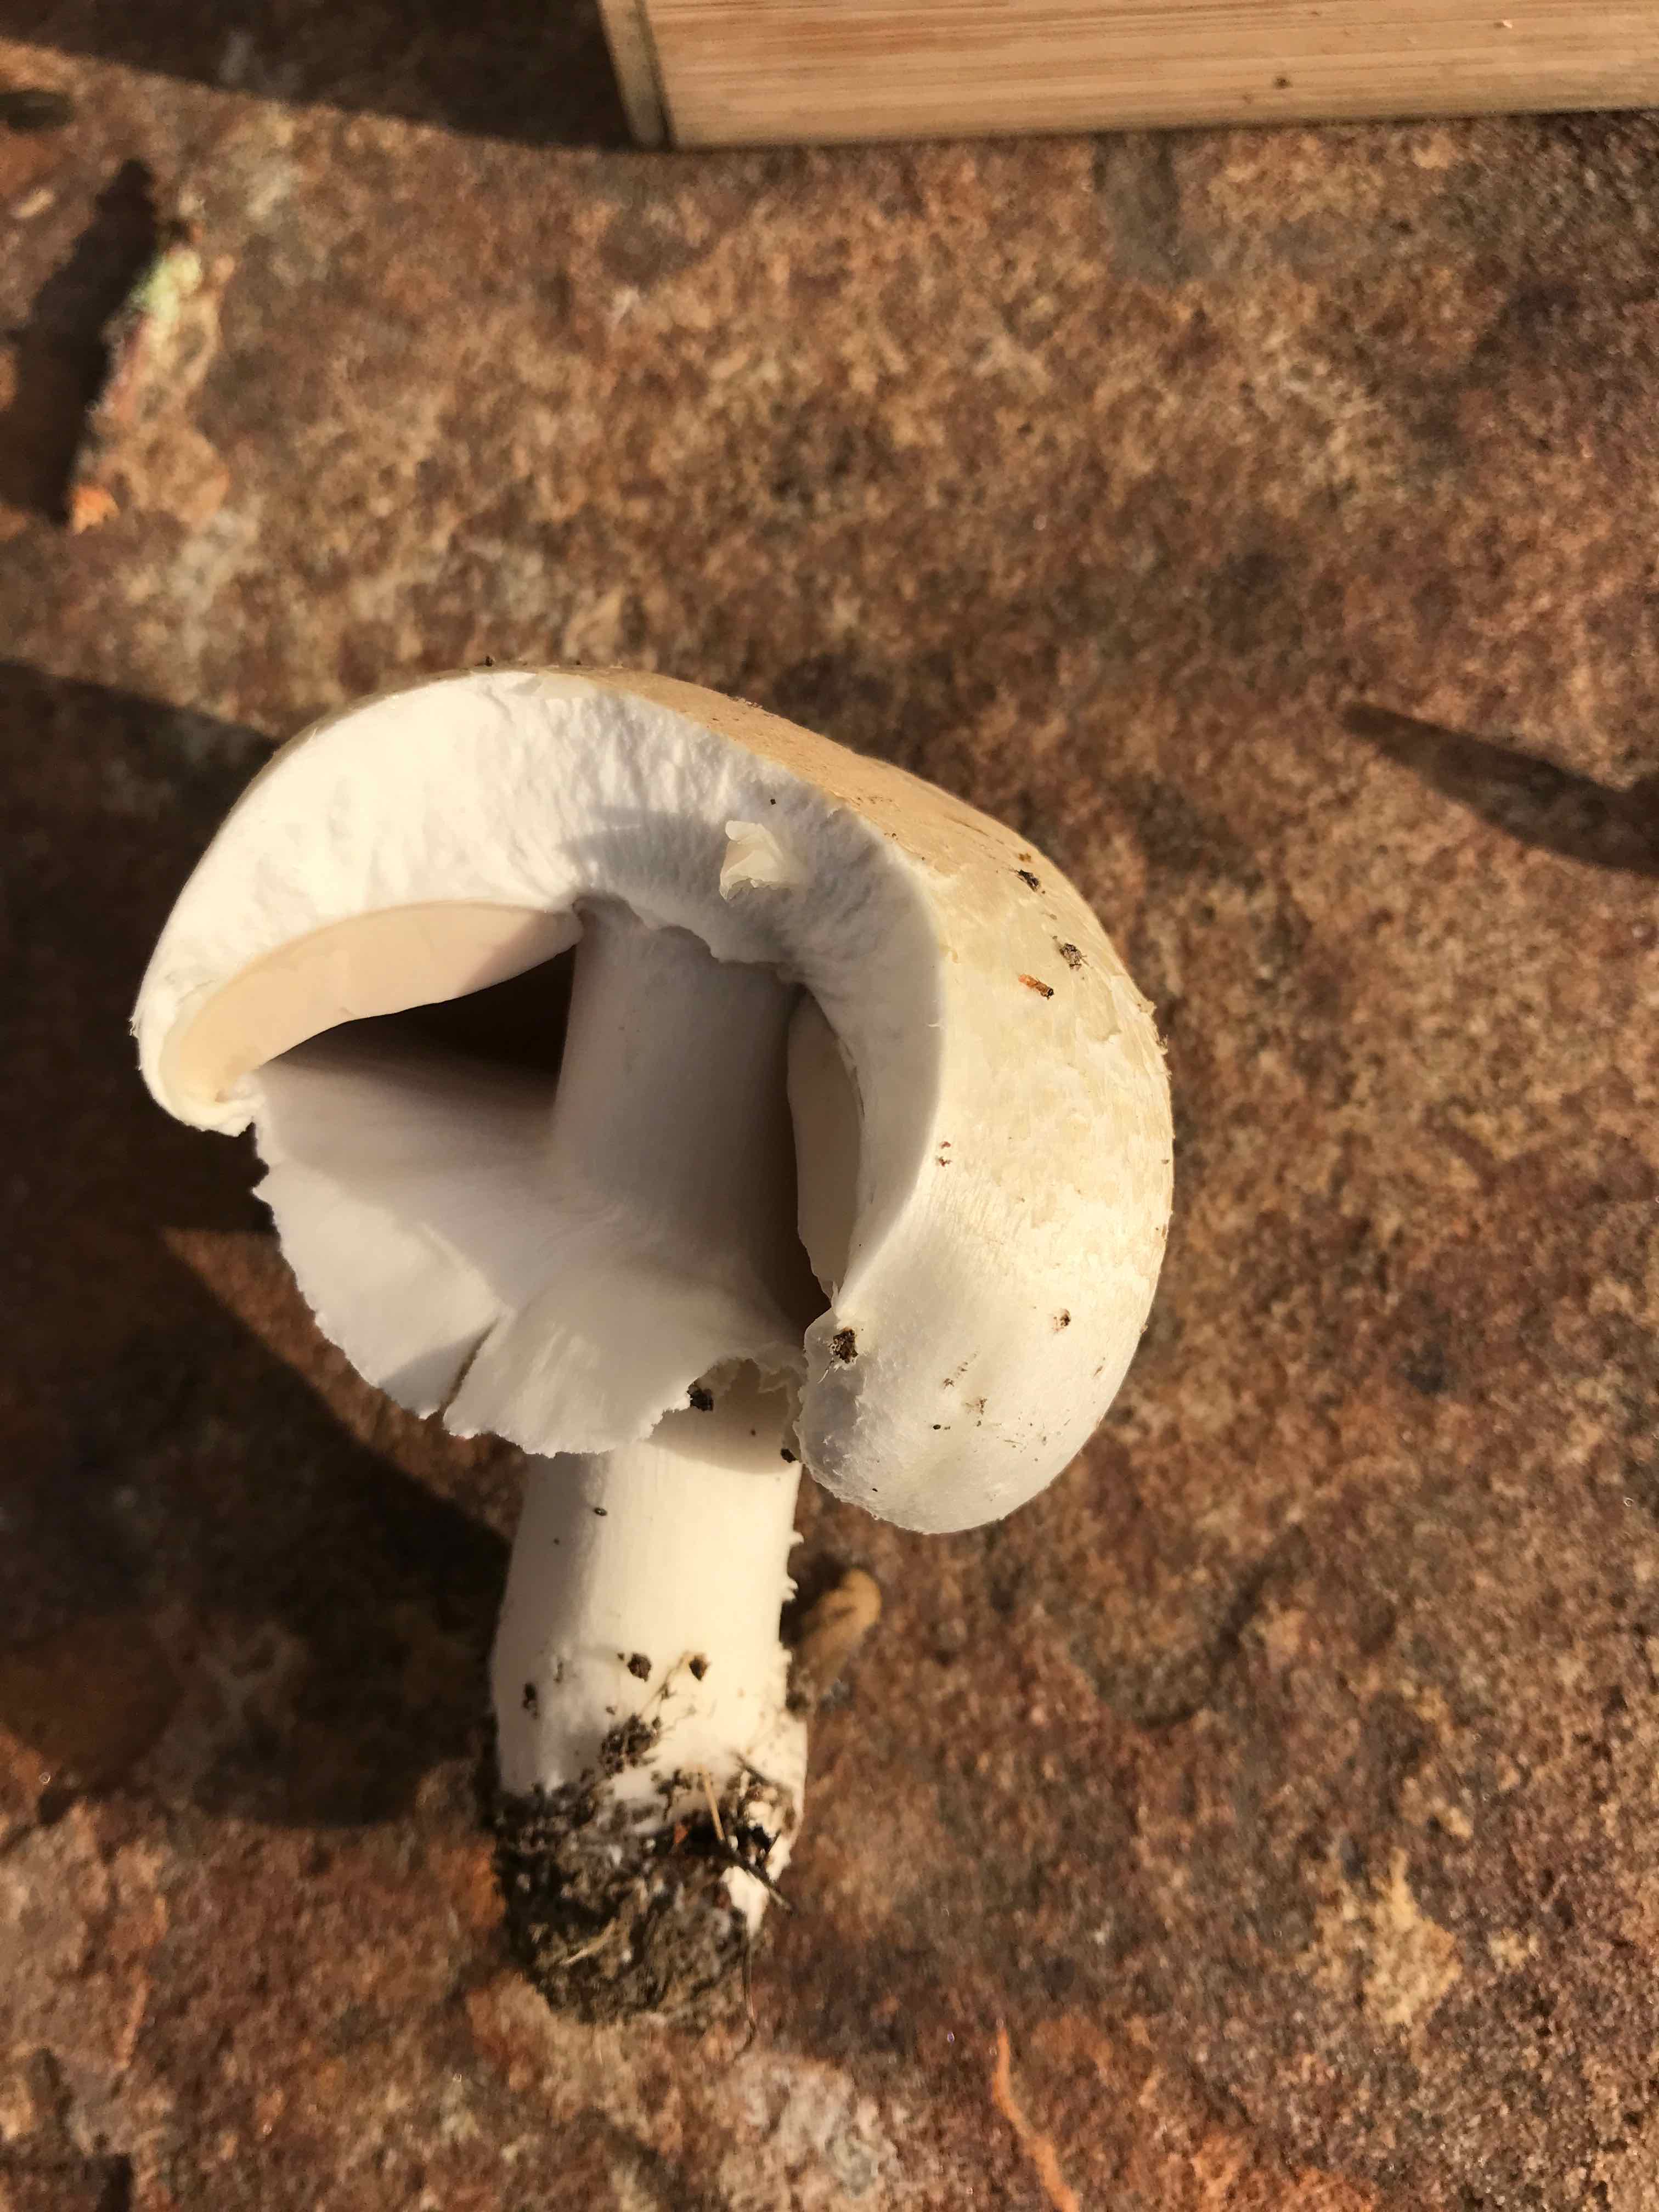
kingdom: Fungi
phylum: Basidiomycota
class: Agaricomycetes
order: Agaricales
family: Agaricaceae
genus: Agaricus
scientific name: Agaricus arvensis
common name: ager-champignon
